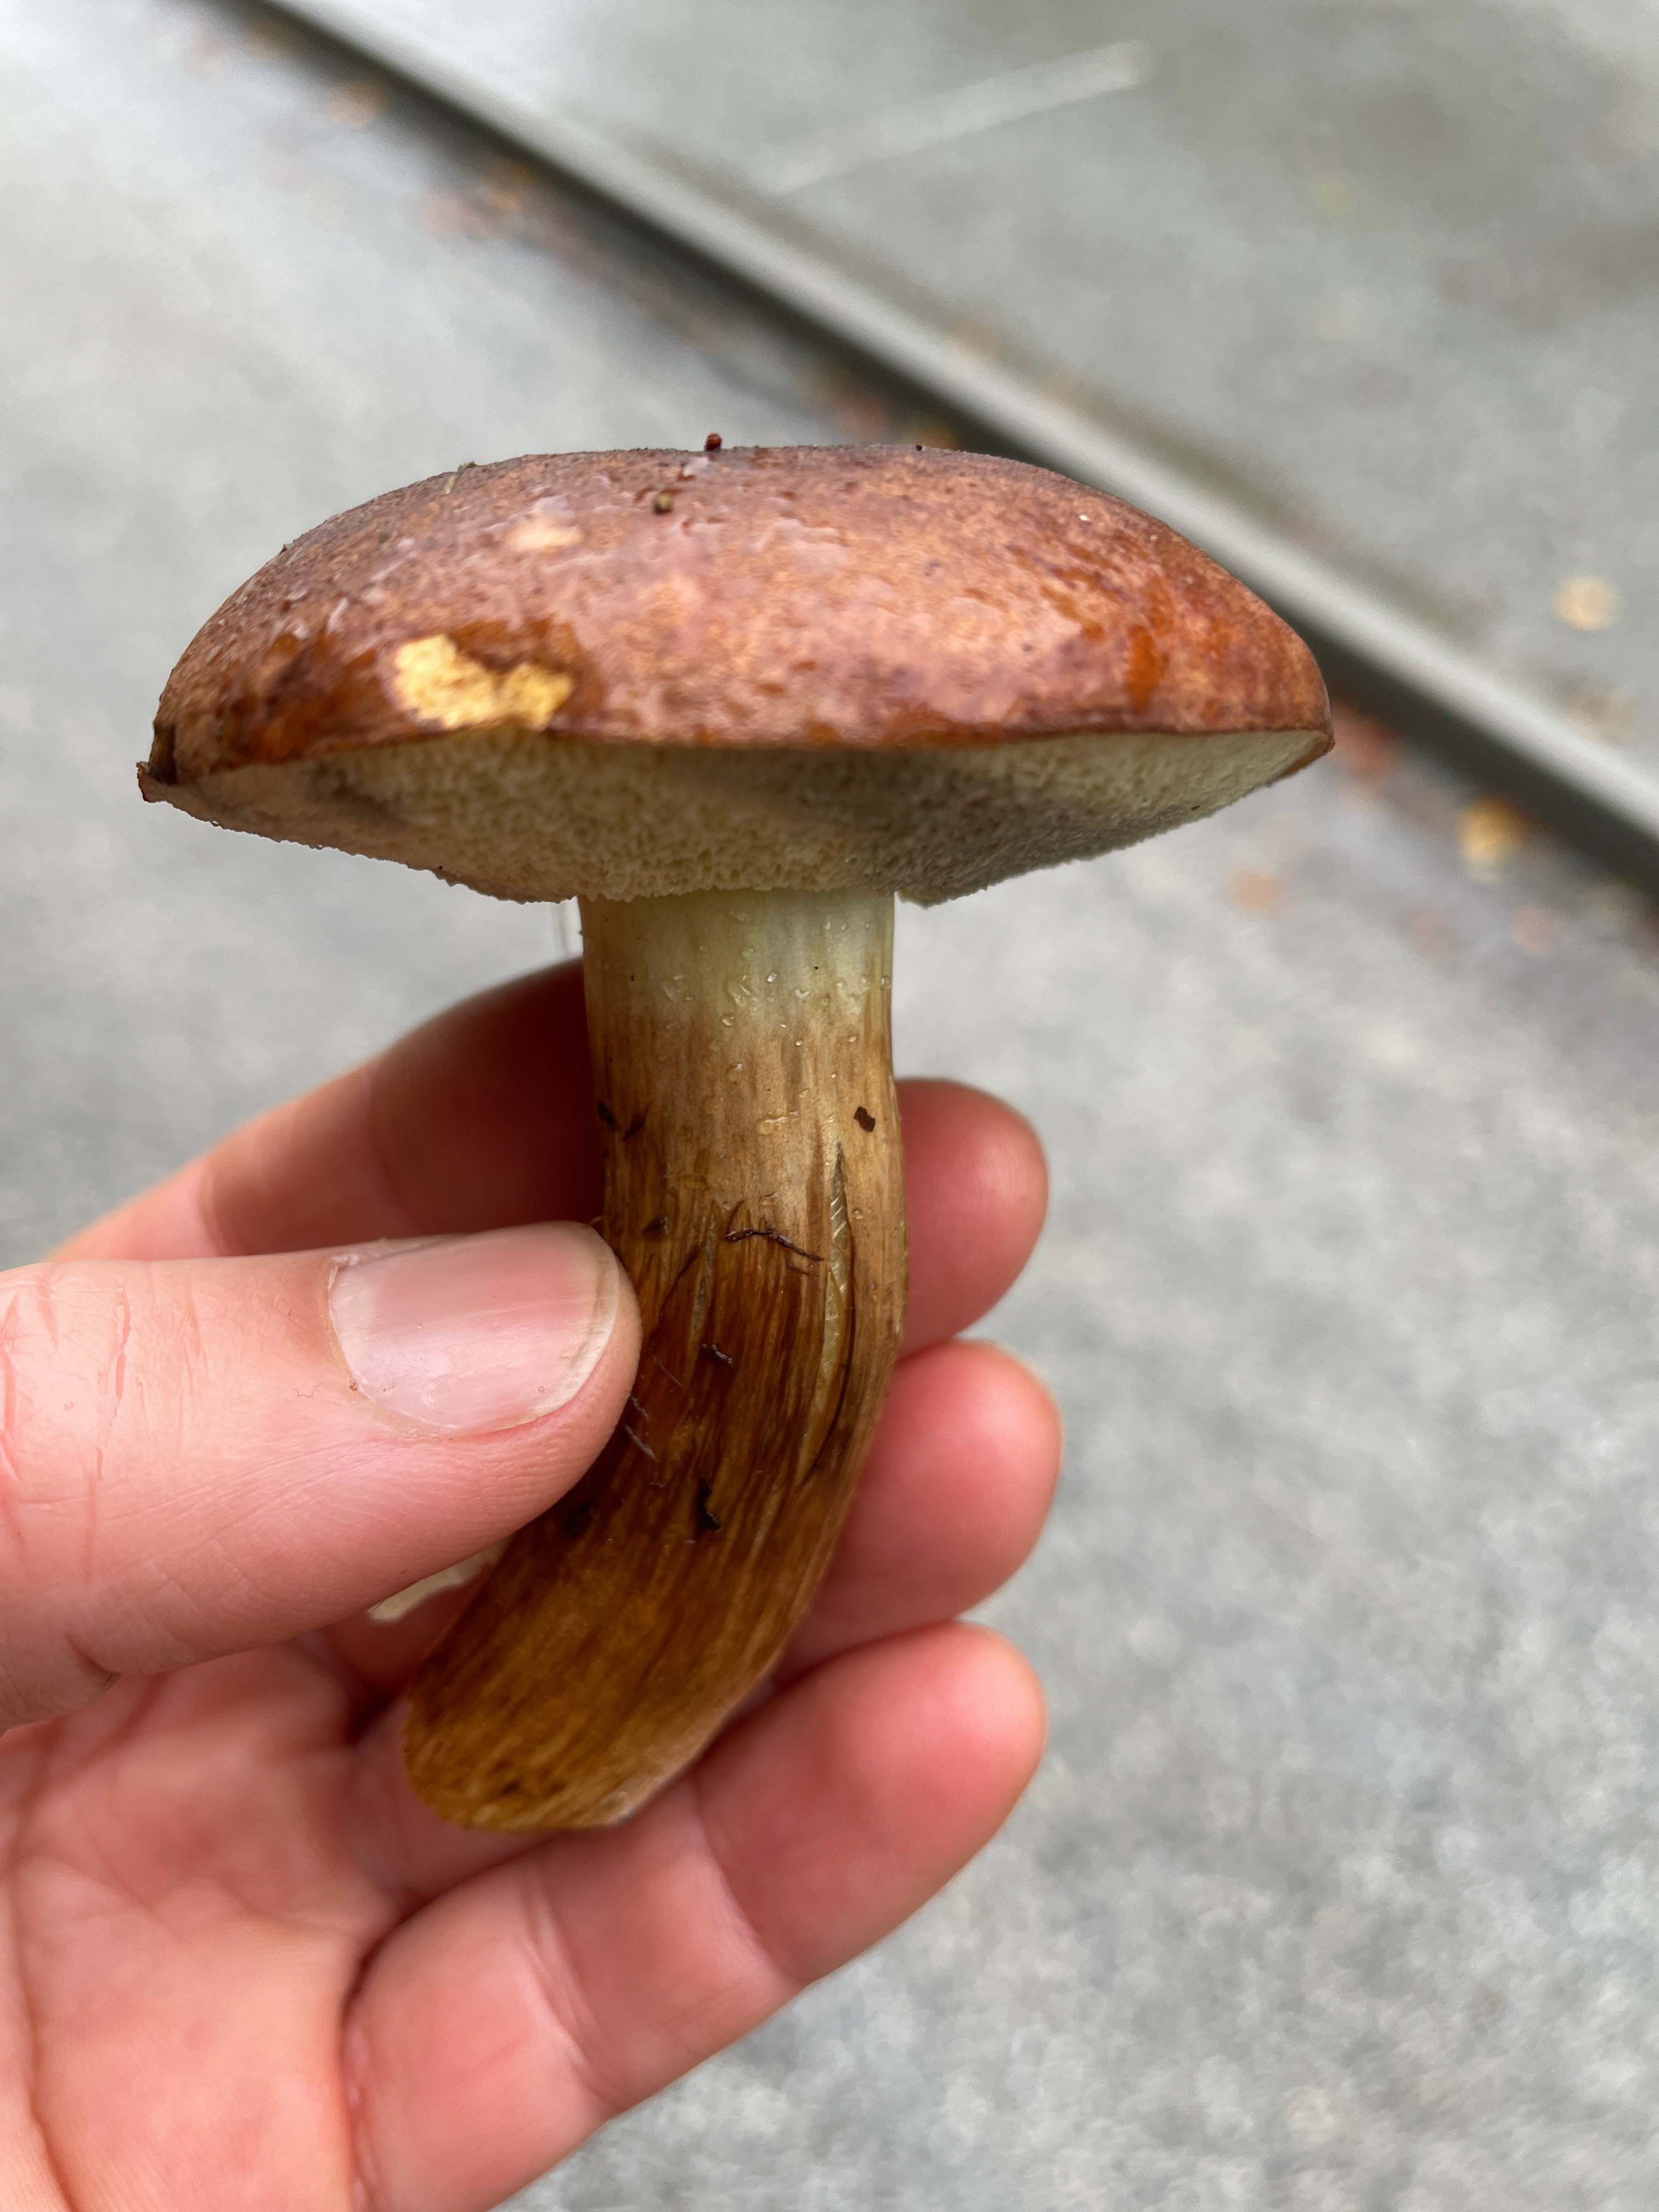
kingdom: Fungi
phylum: Basidiomycota
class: Agaricomycetes
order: Boletales
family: Boletaceae
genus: Imleria
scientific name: Imleria badia
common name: brunstokket rørhat
